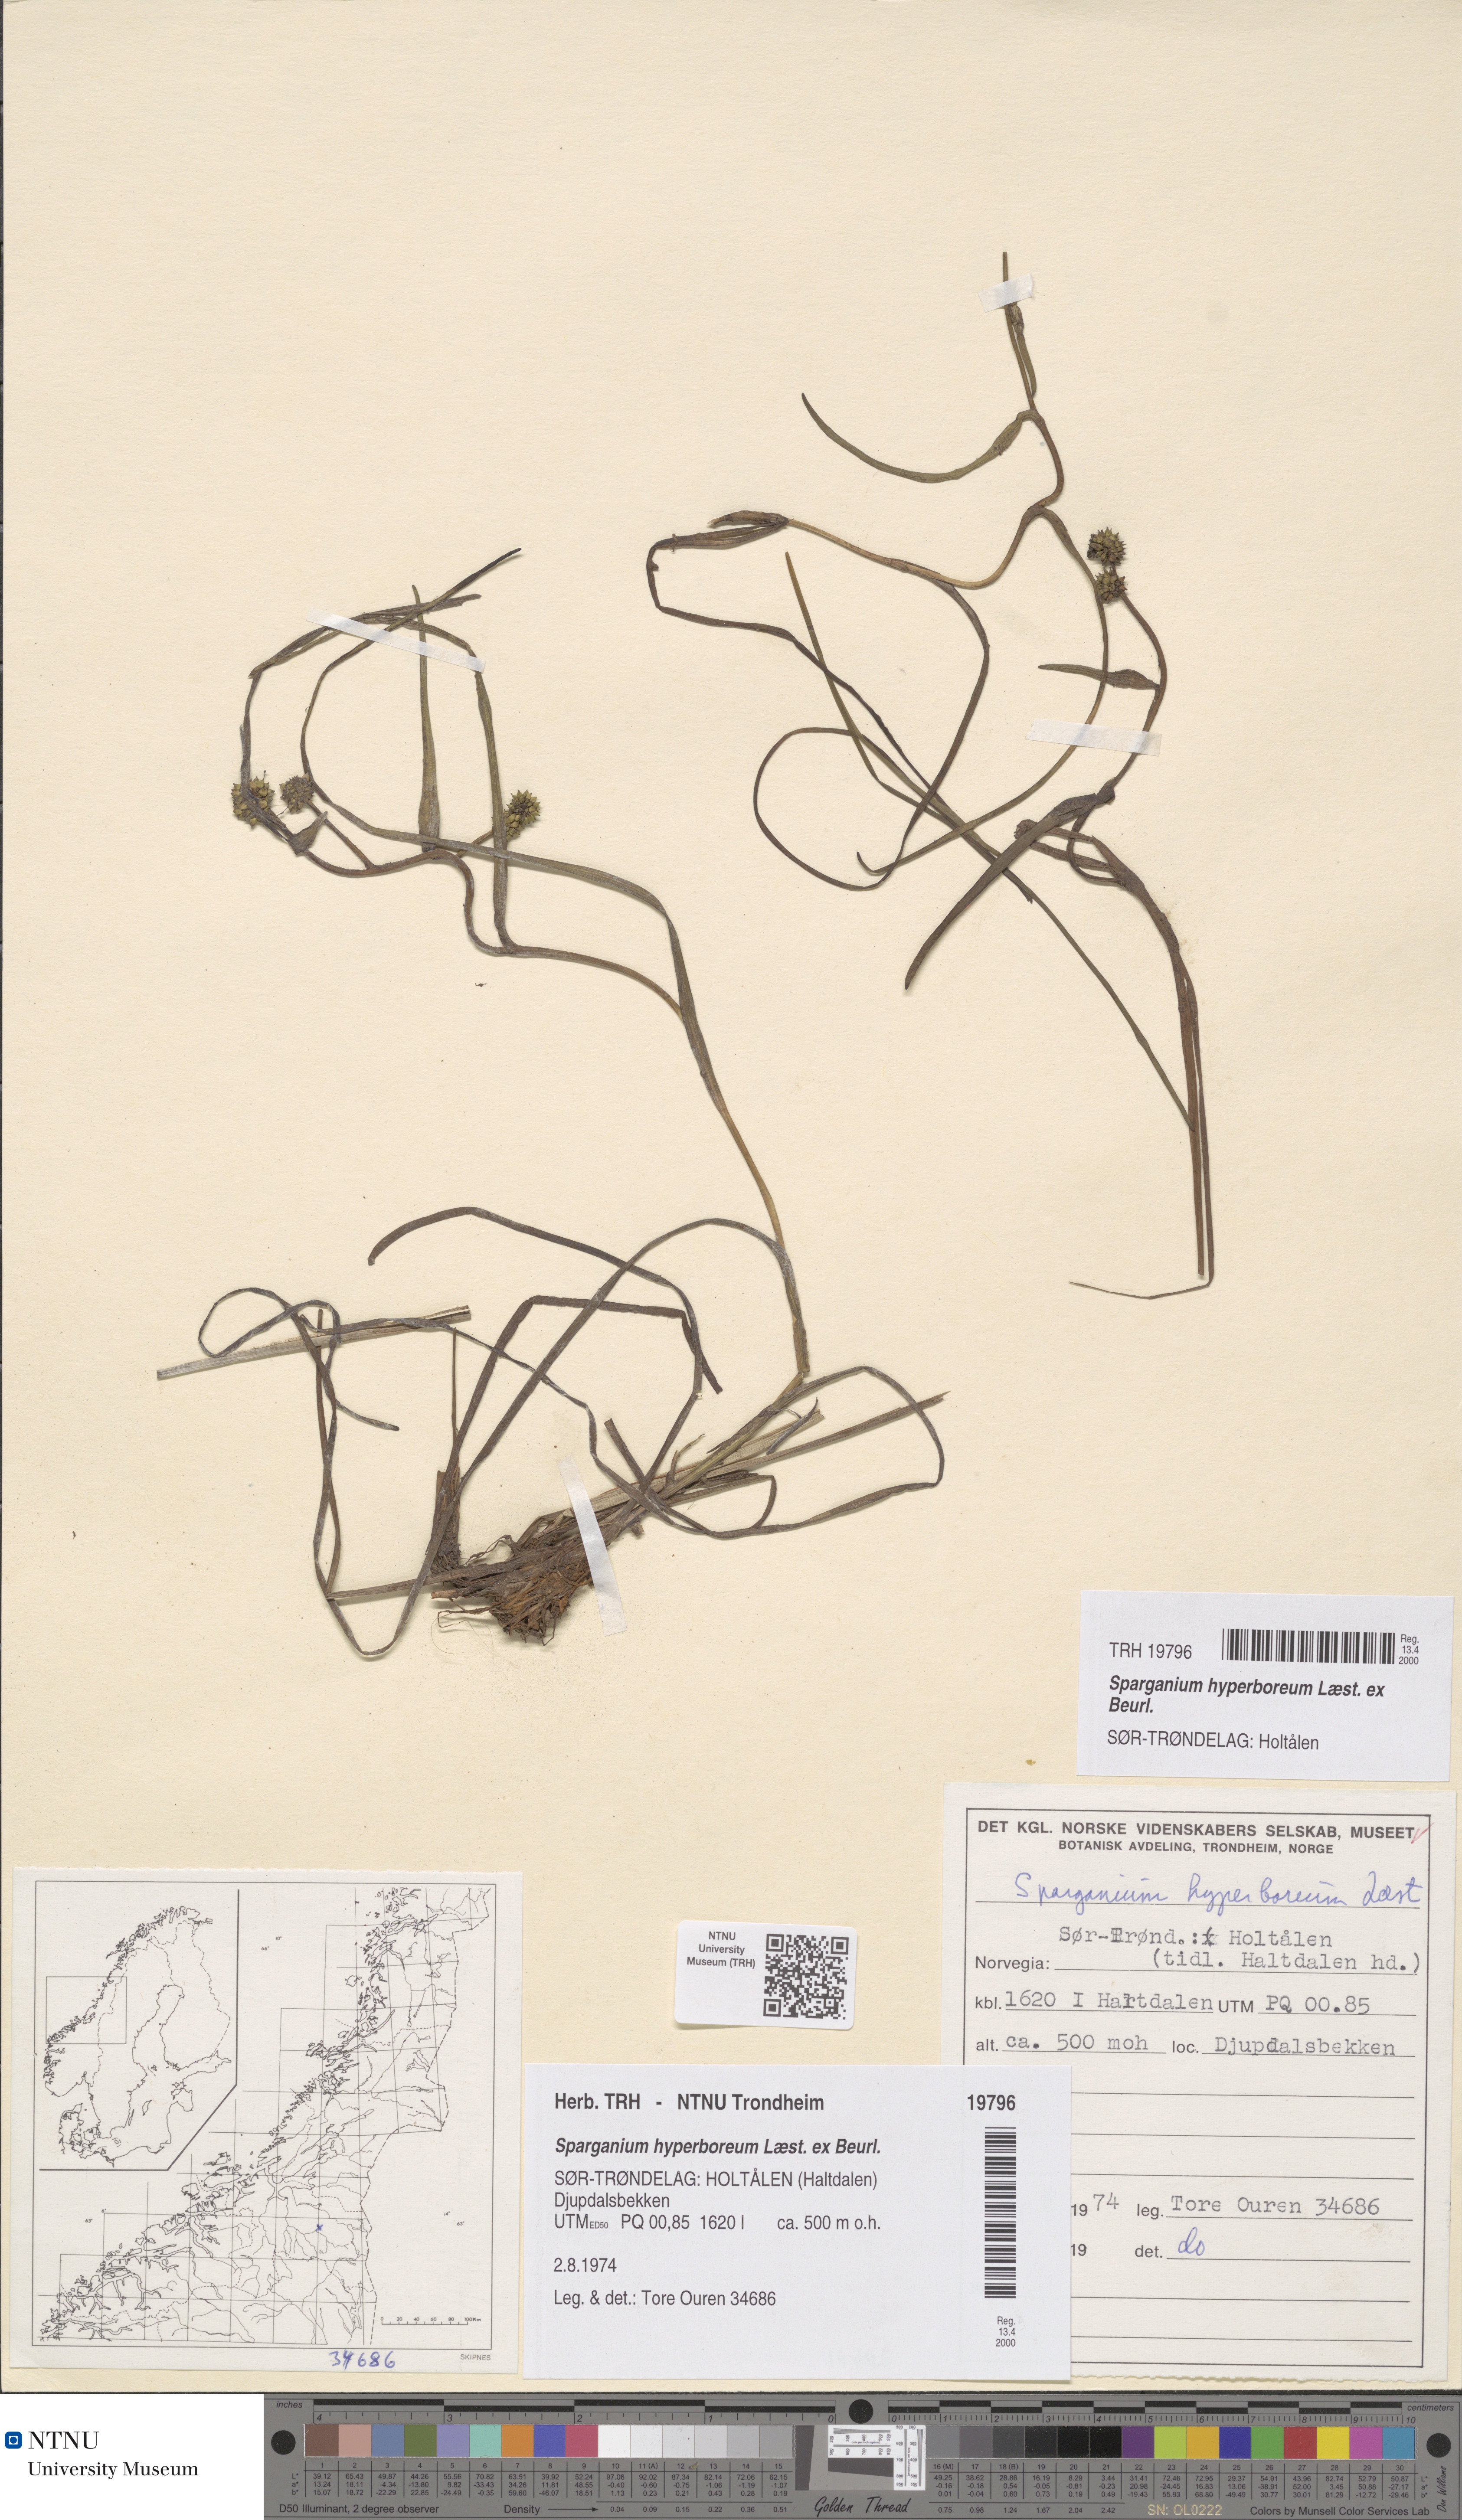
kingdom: Plantae
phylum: Tracheophyta
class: Liliopsida
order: Poales
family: Typhaceae
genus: Sparganium
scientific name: Sparganium hyperboreum
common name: Arctic burreed
